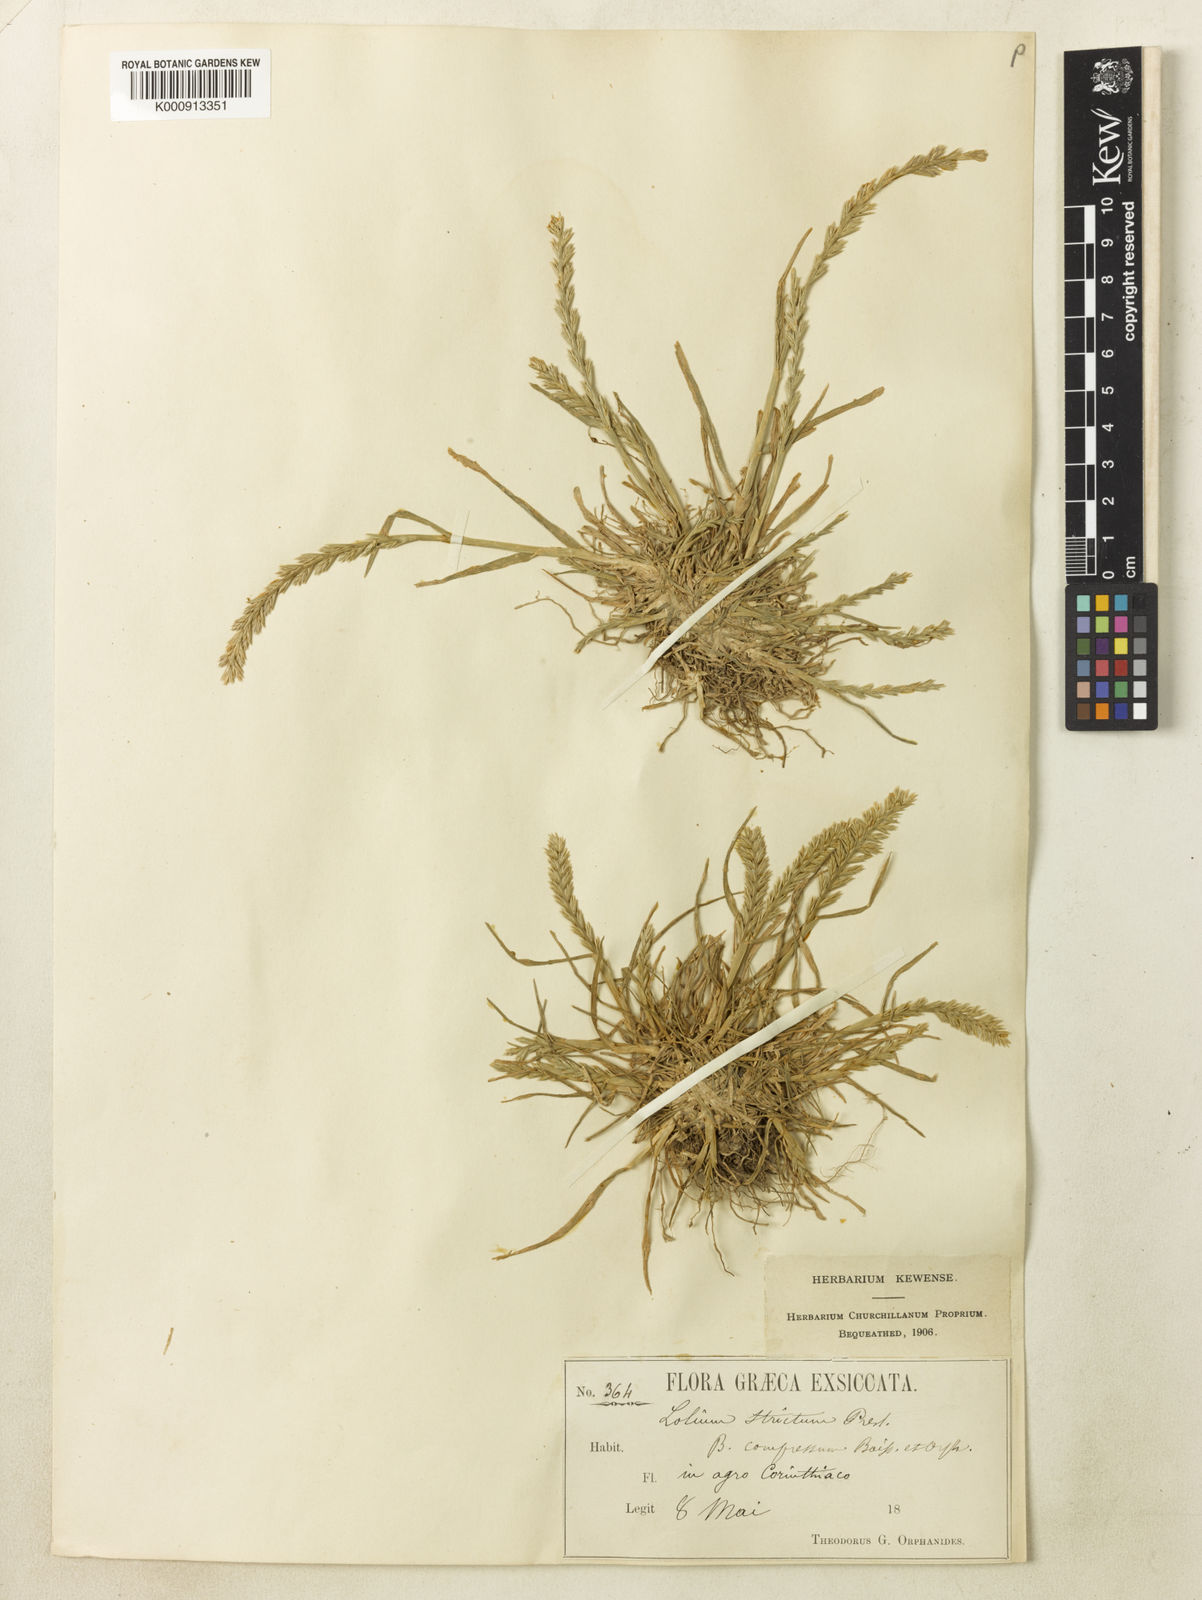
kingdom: Plantae
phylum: Tracheophyta
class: Liliopsida
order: Poales
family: Poaceae
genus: Lolium
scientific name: Lolium rigidum
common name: Wimmera ryegrass
